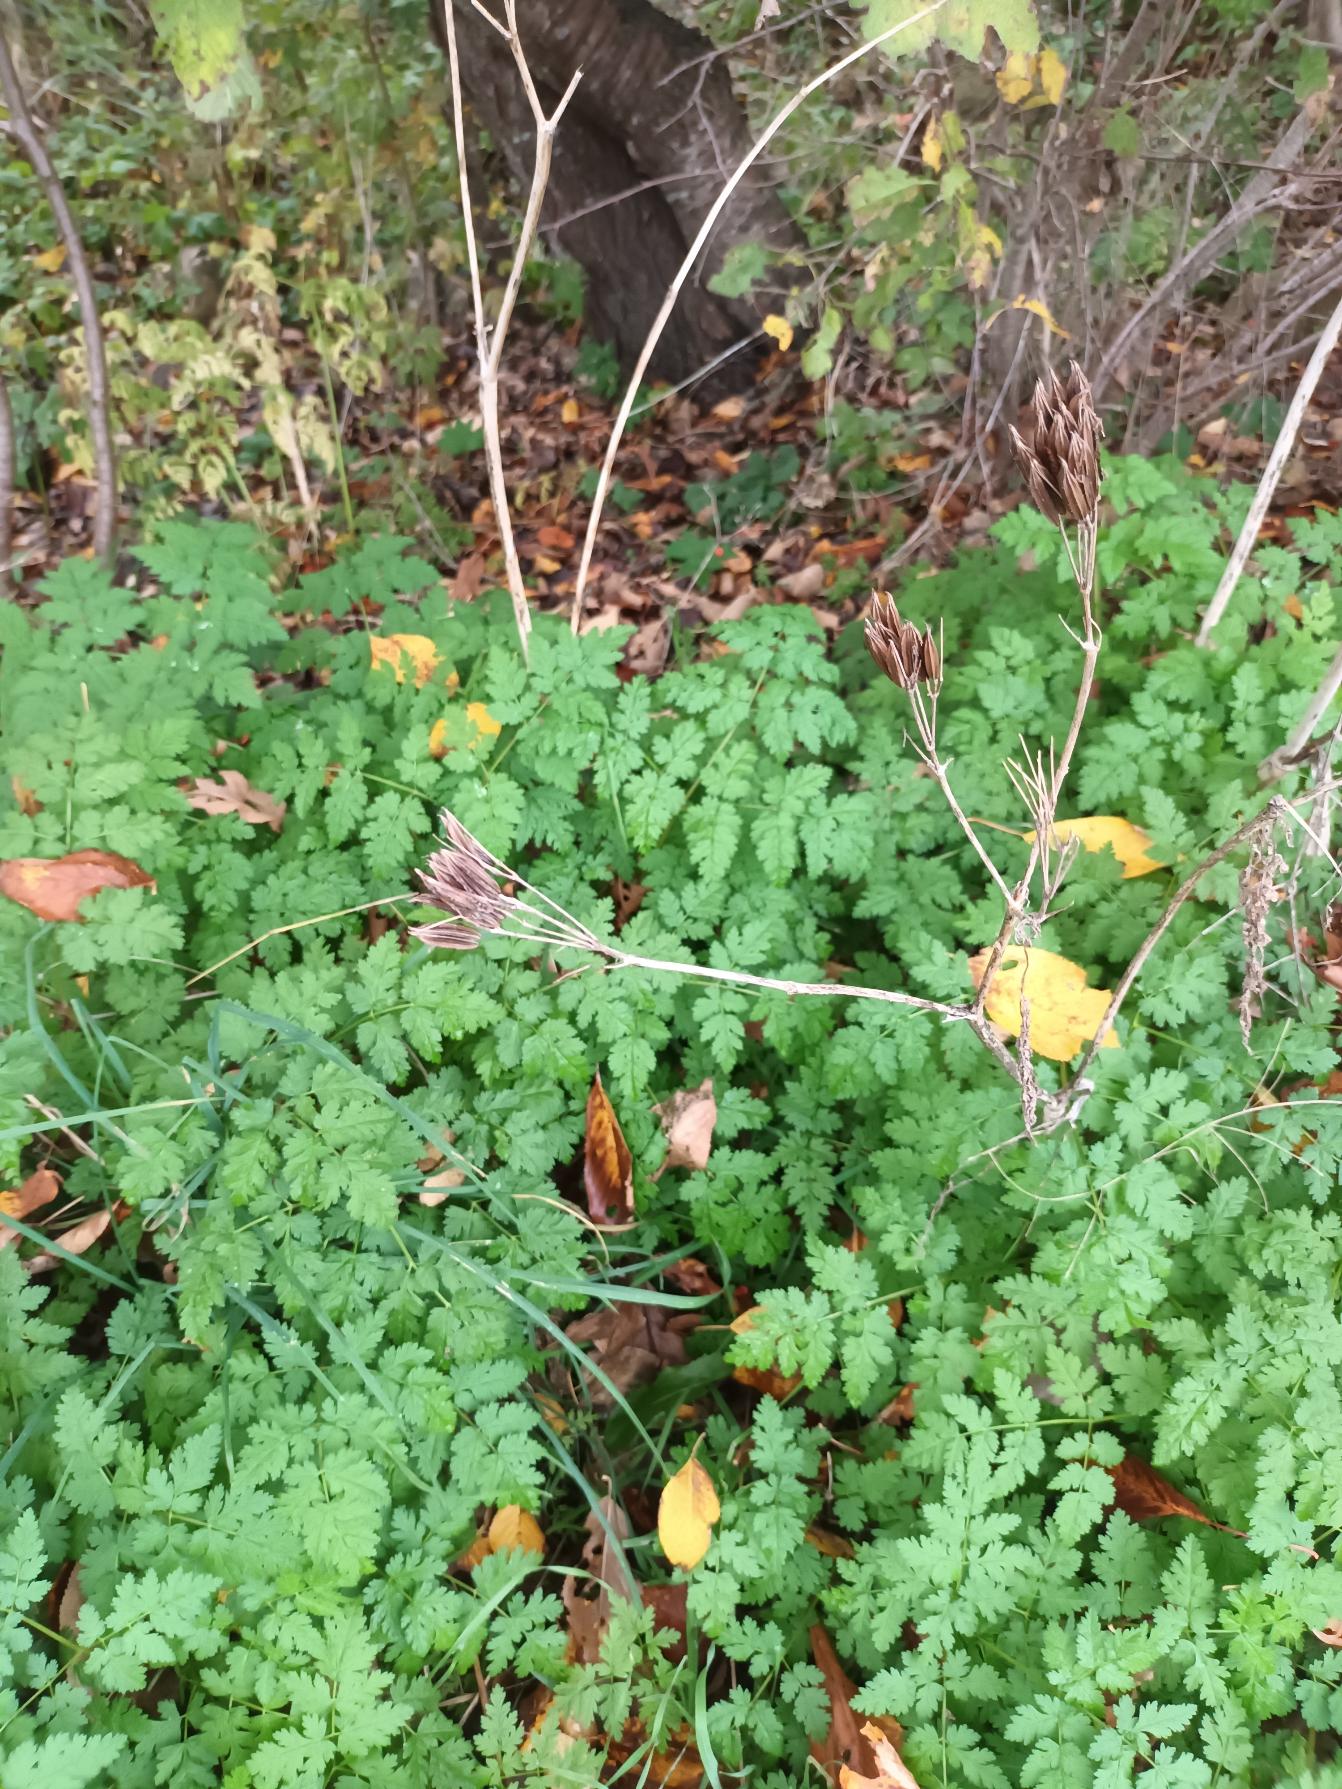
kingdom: Plantae
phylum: Tracheophyta
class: Magnoliopsida
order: Apiales
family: Apiaceae
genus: Myrrhis
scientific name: Myrrhis odorata
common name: Sødskærm
